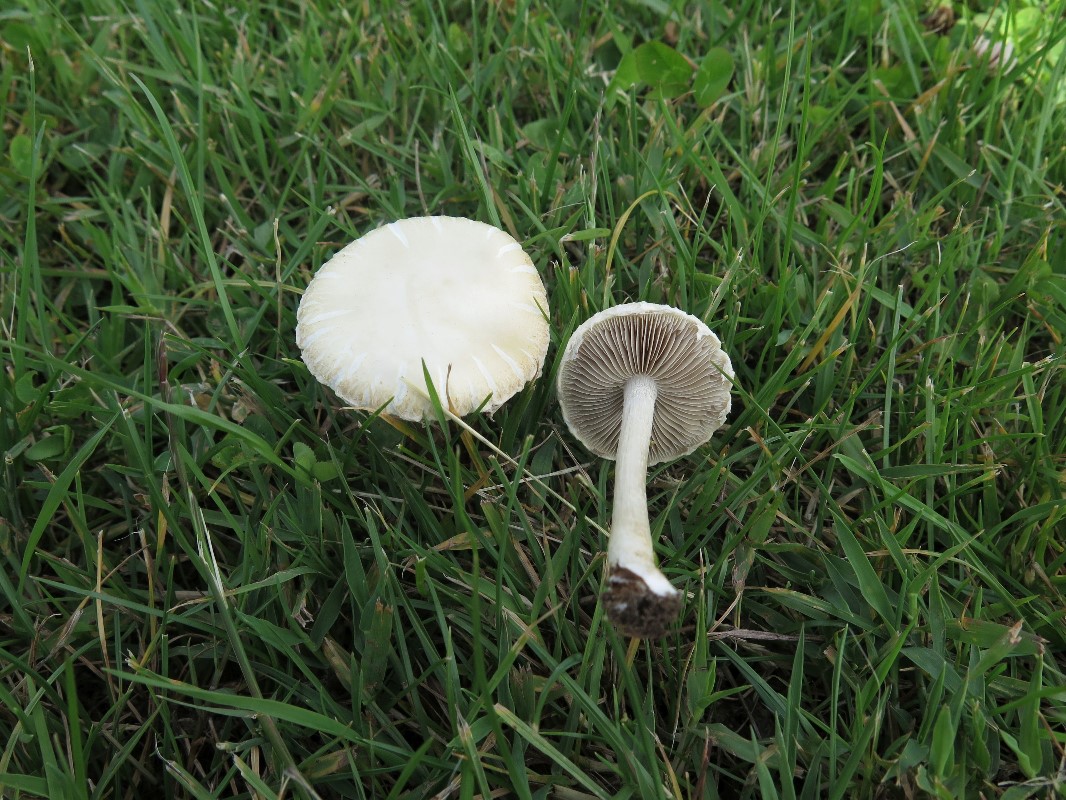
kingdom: Fungi
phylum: Basidiomycota
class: Agaricomycetes
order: Agaricales
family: Strophariaceae
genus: Agrocybe
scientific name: Agrocybe dura
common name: fastkødet agerhat
